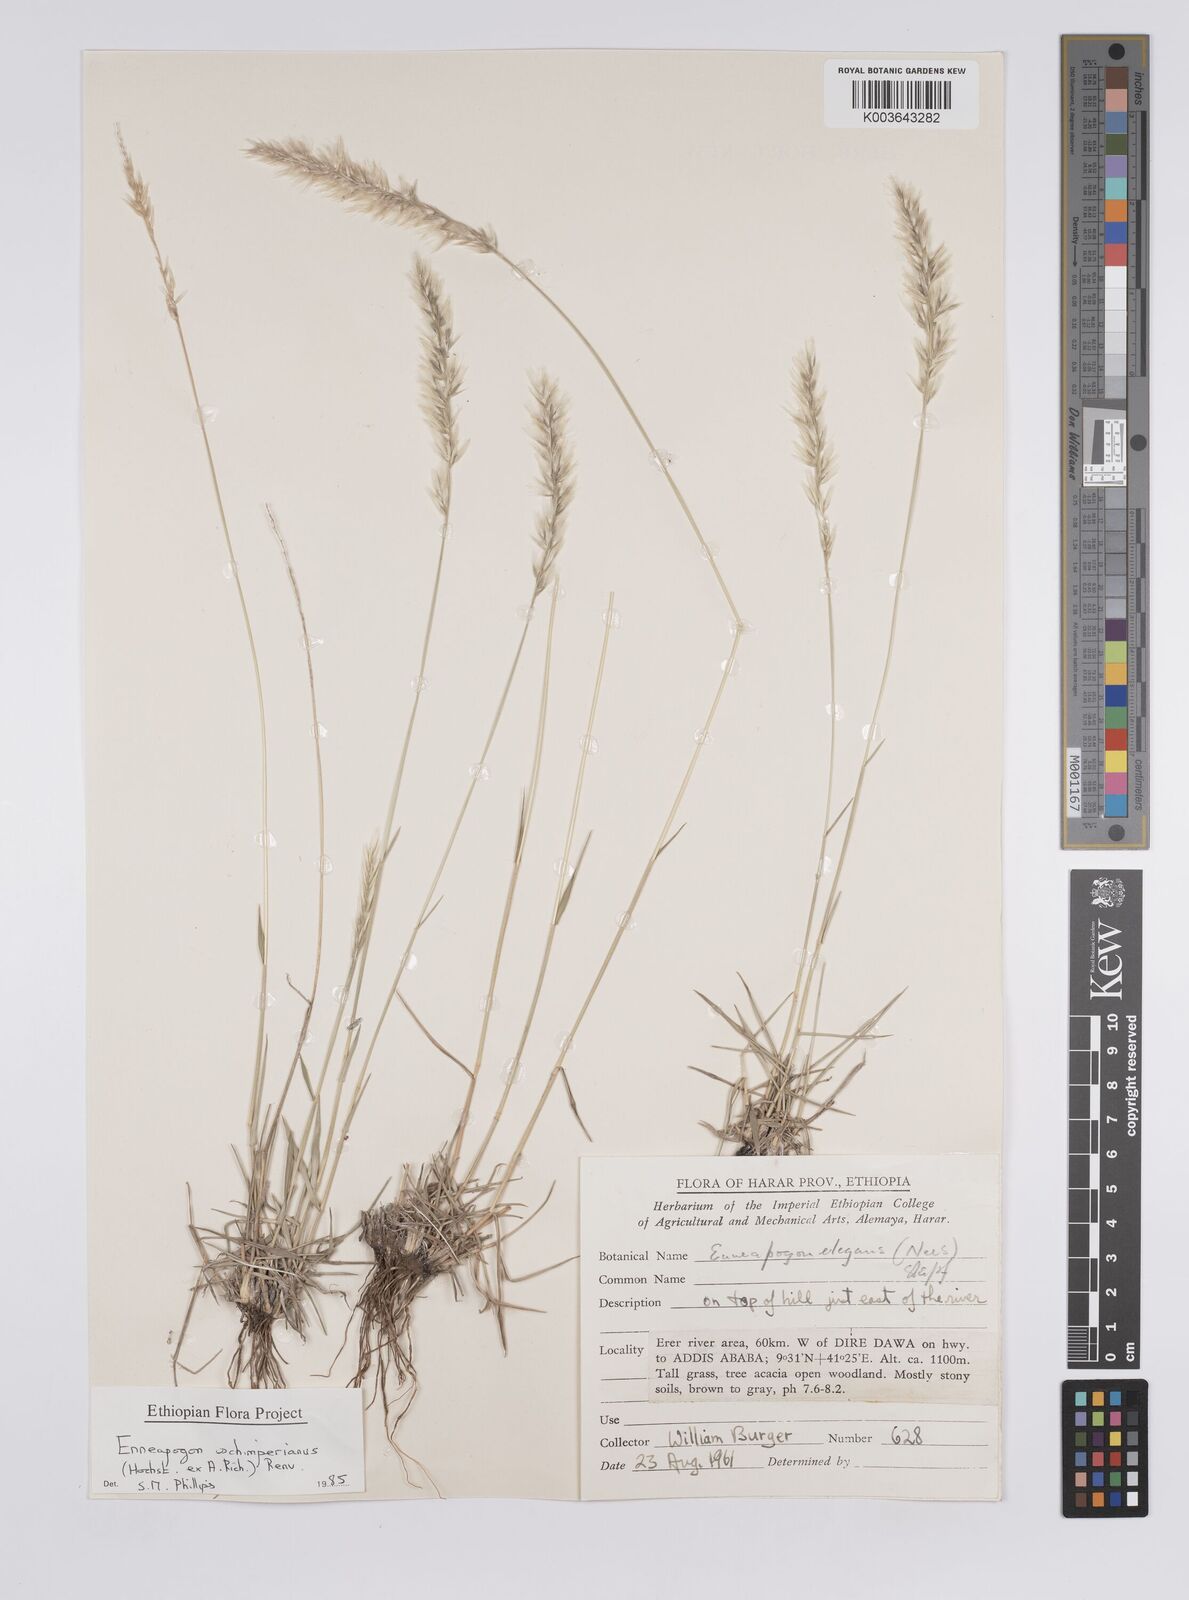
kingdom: Plantae
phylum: Tracheophyta
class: Liliopsida
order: Poales
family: Poaceae
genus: Enneapogon
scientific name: Enneapogon persicus
